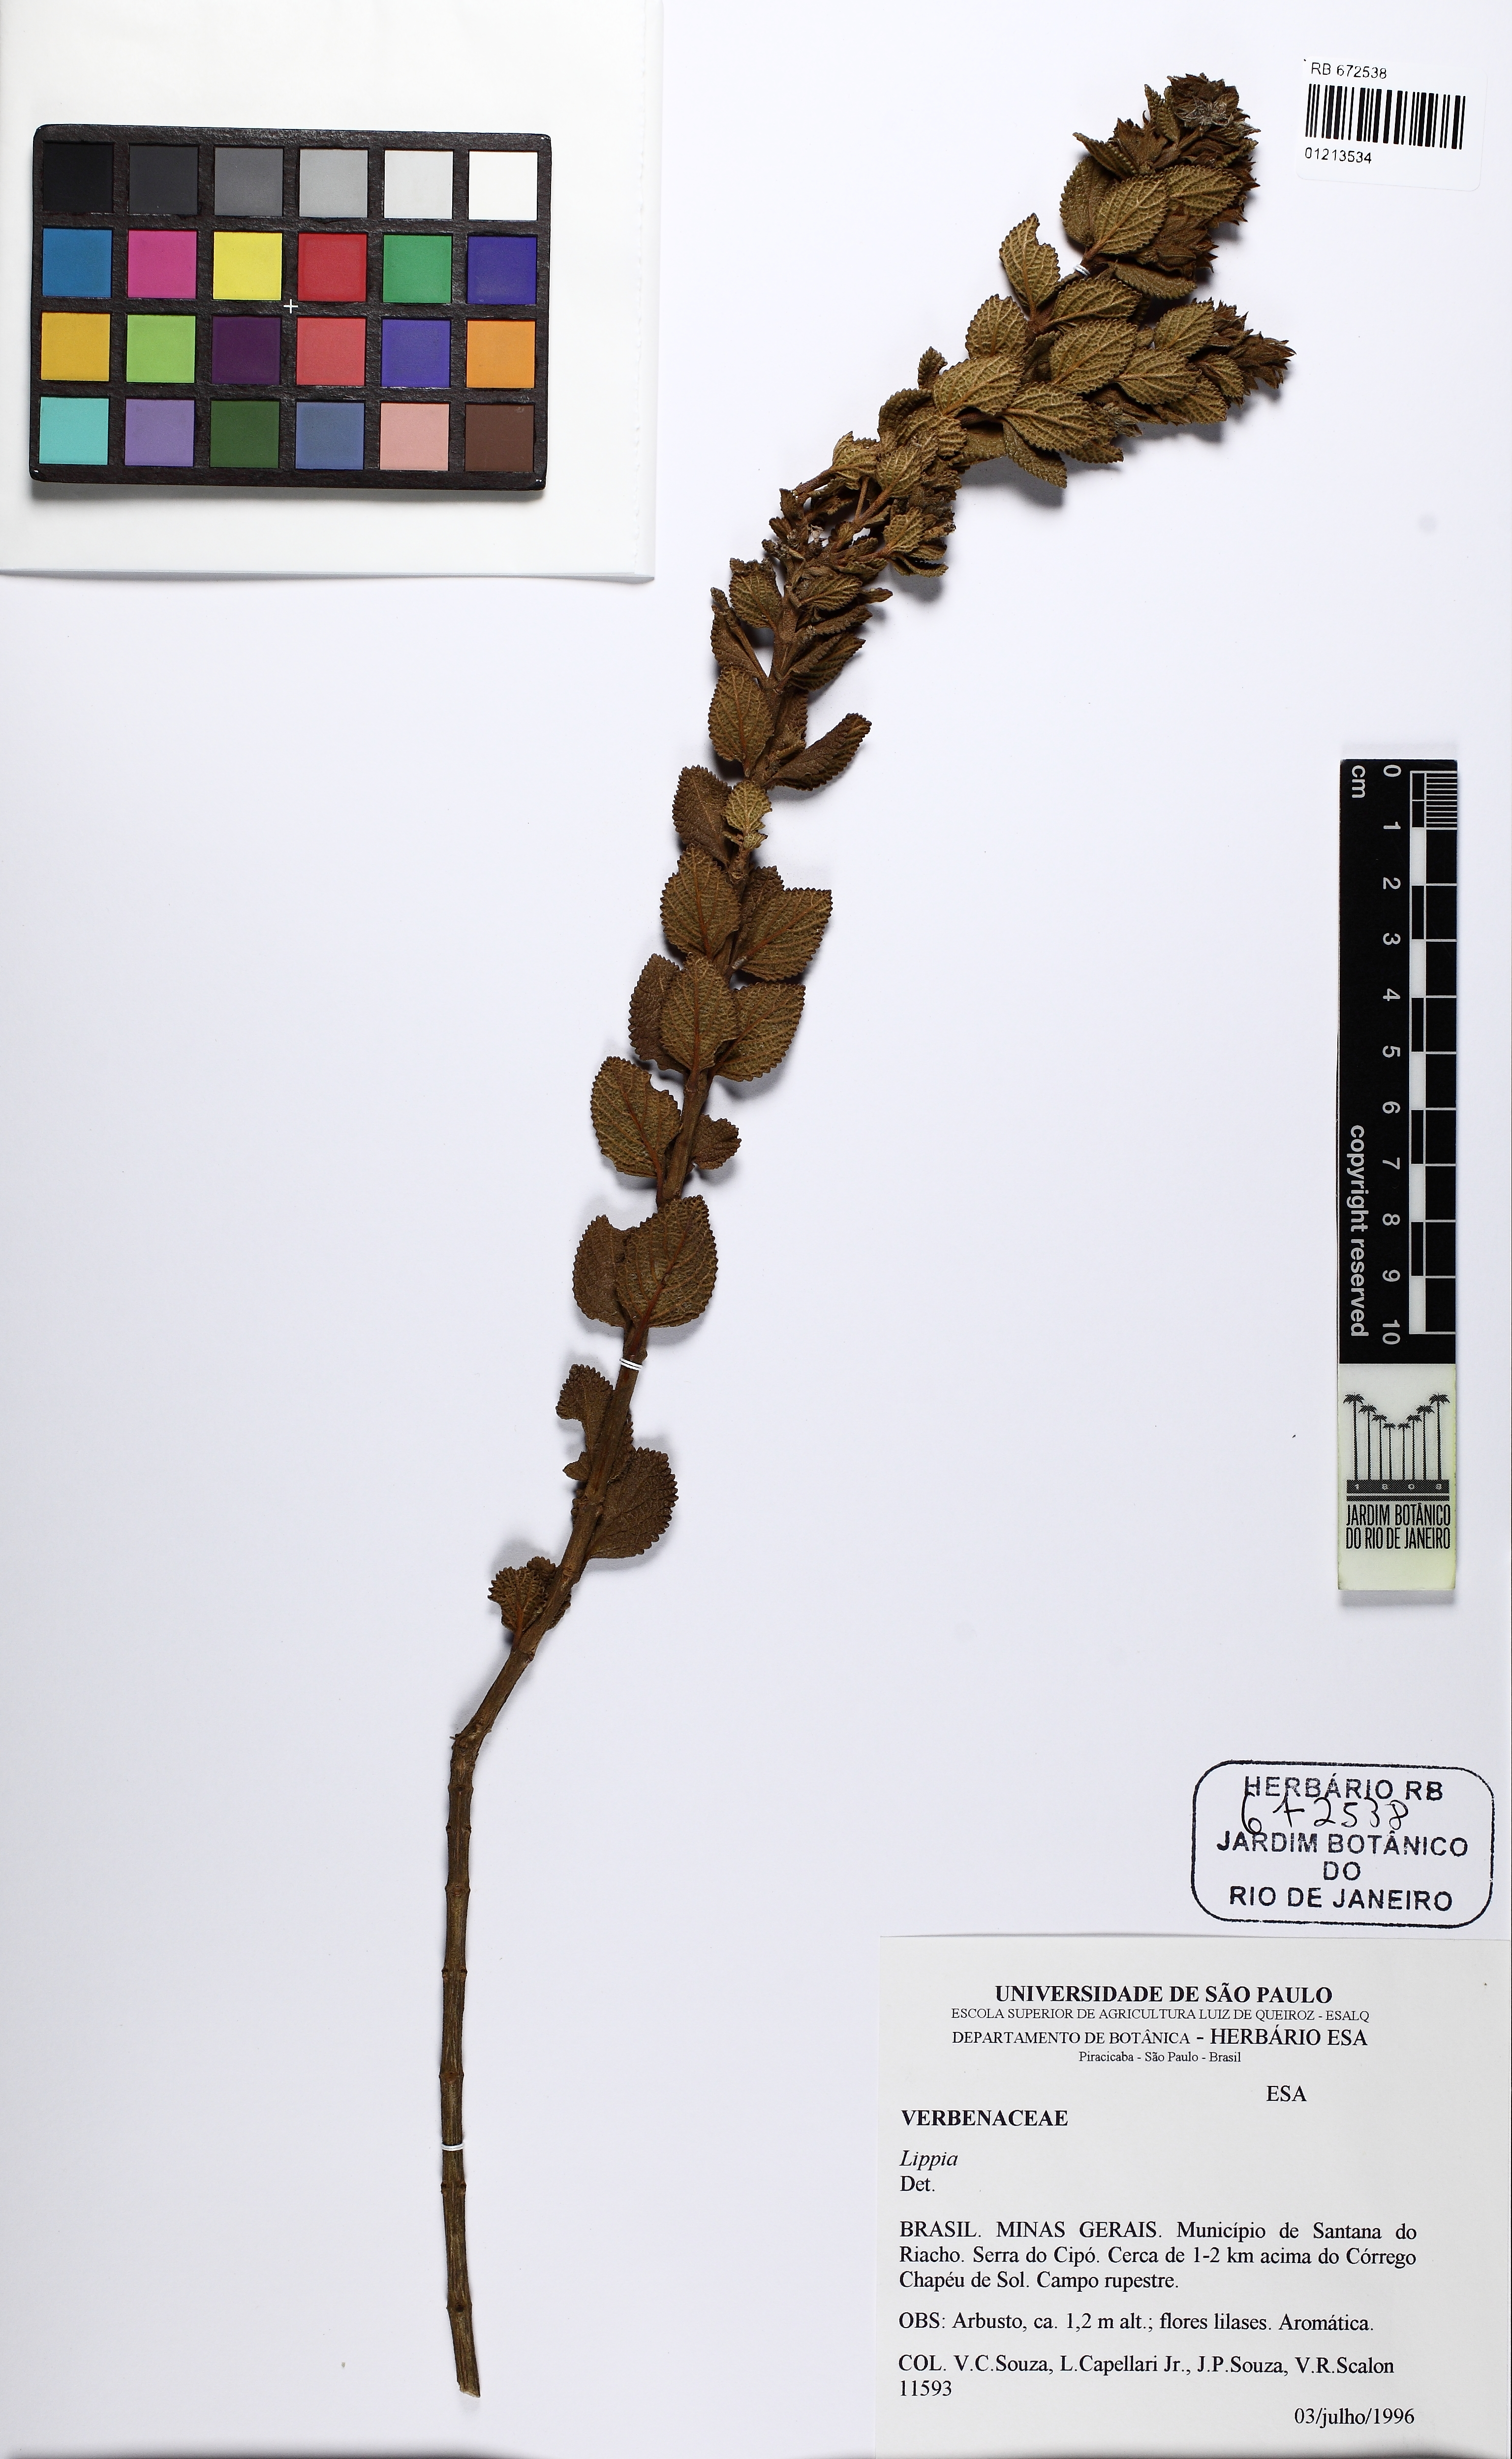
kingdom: Plantae
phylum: Tracheophyta
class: Magnoliopsida
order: Lamiales
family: Verbenaceae
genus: Lippia
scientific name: Lippia
